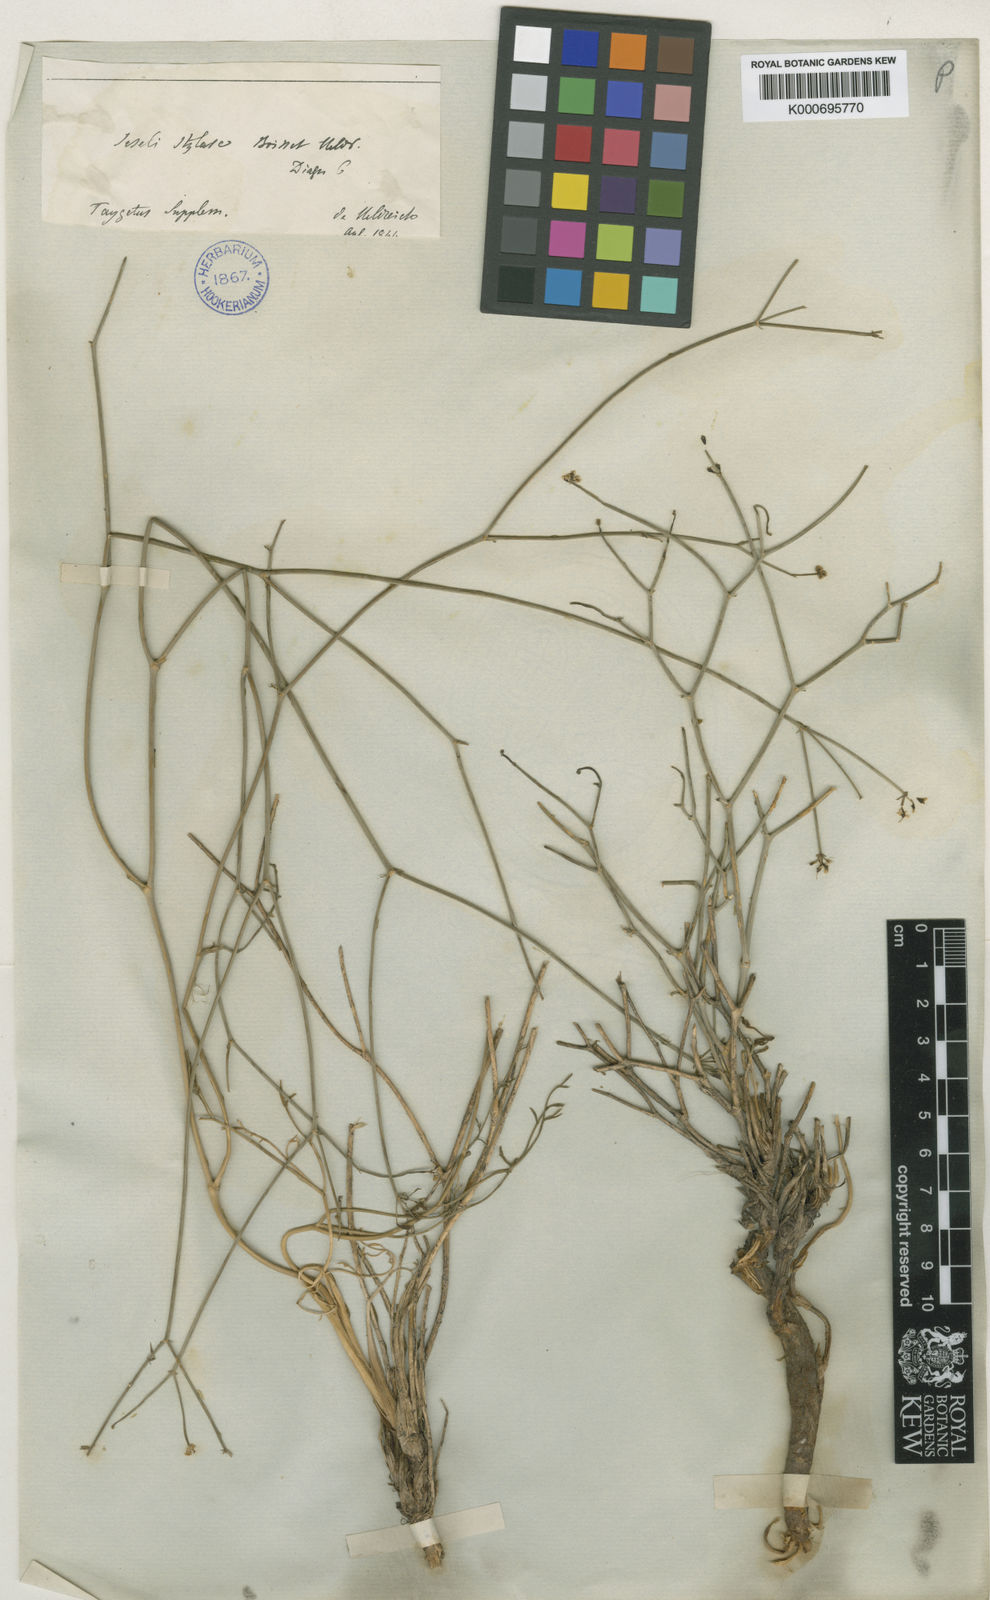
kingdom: Plantae
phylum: Tracheophyta
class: Magnoliopsida
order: Apiales
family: Apiaceae
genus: Thamnosciadium
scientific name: Thamnosciadium junceum
